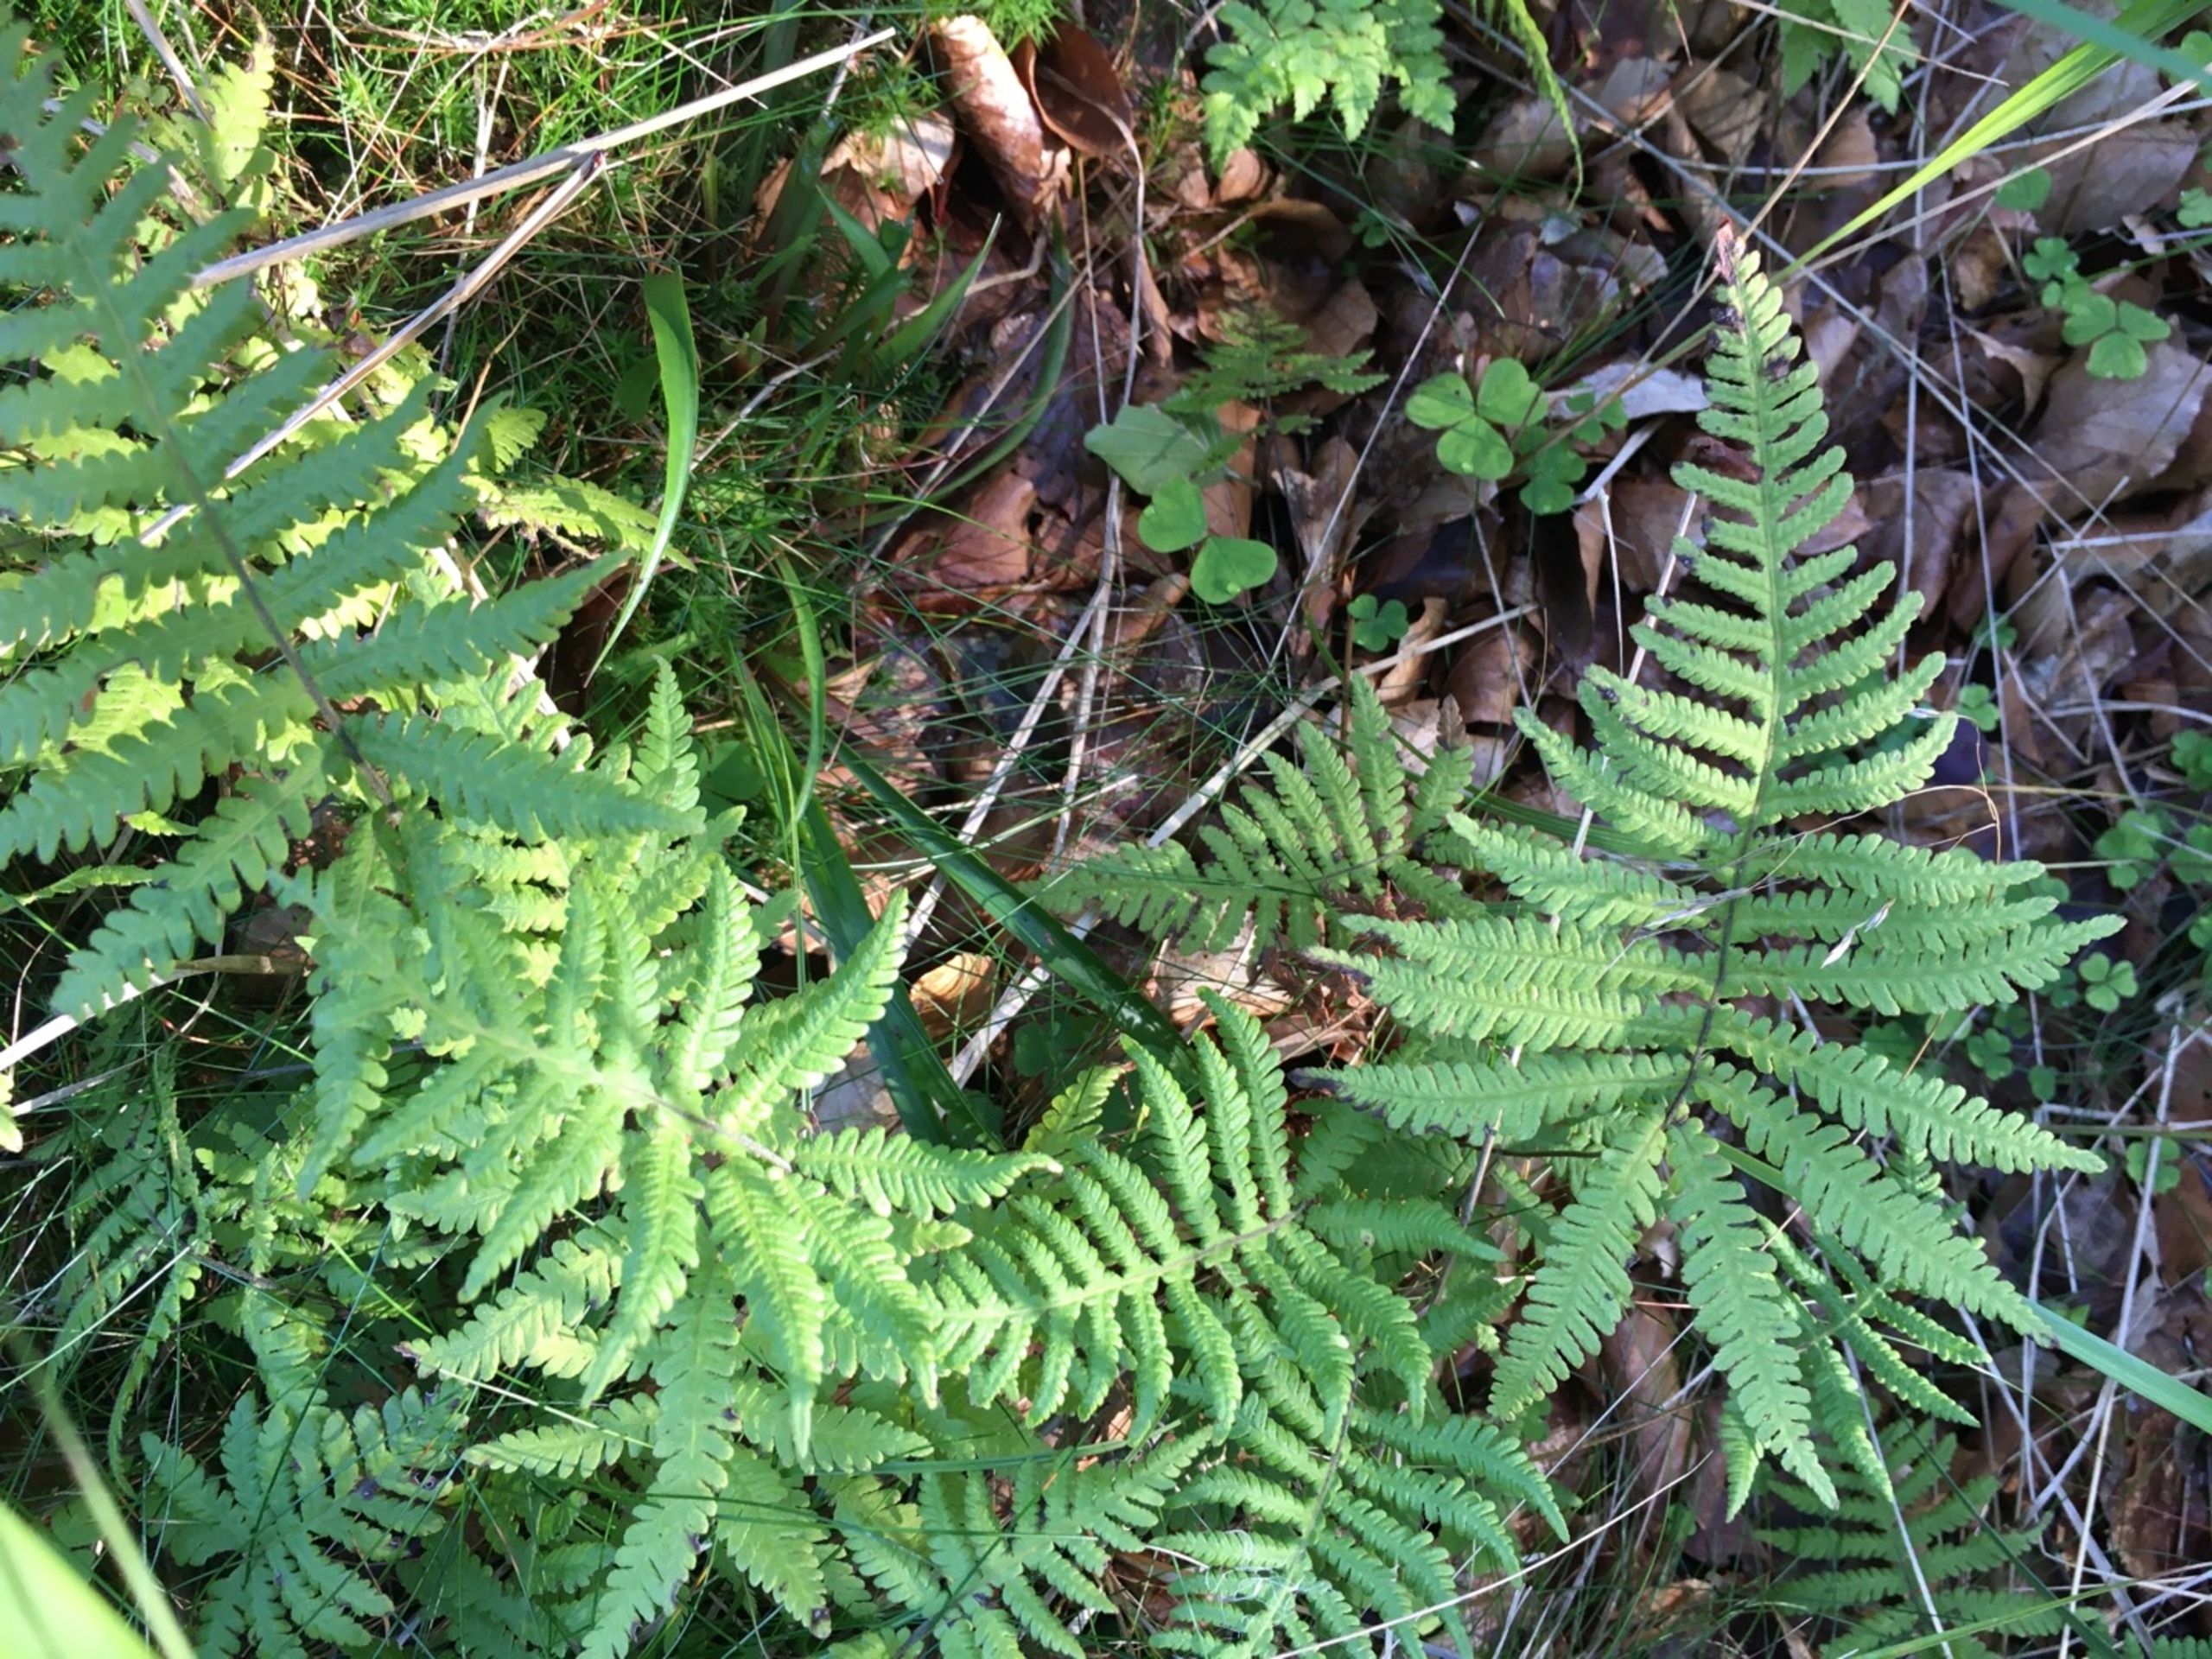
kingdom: Plantae
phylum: Tracheophyta
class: Polypodiopsida
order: Polypodiales
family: Thelypteridaceae
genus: Phegopteris
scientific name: Phegopteris connectilis
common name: Dunet egebregne
